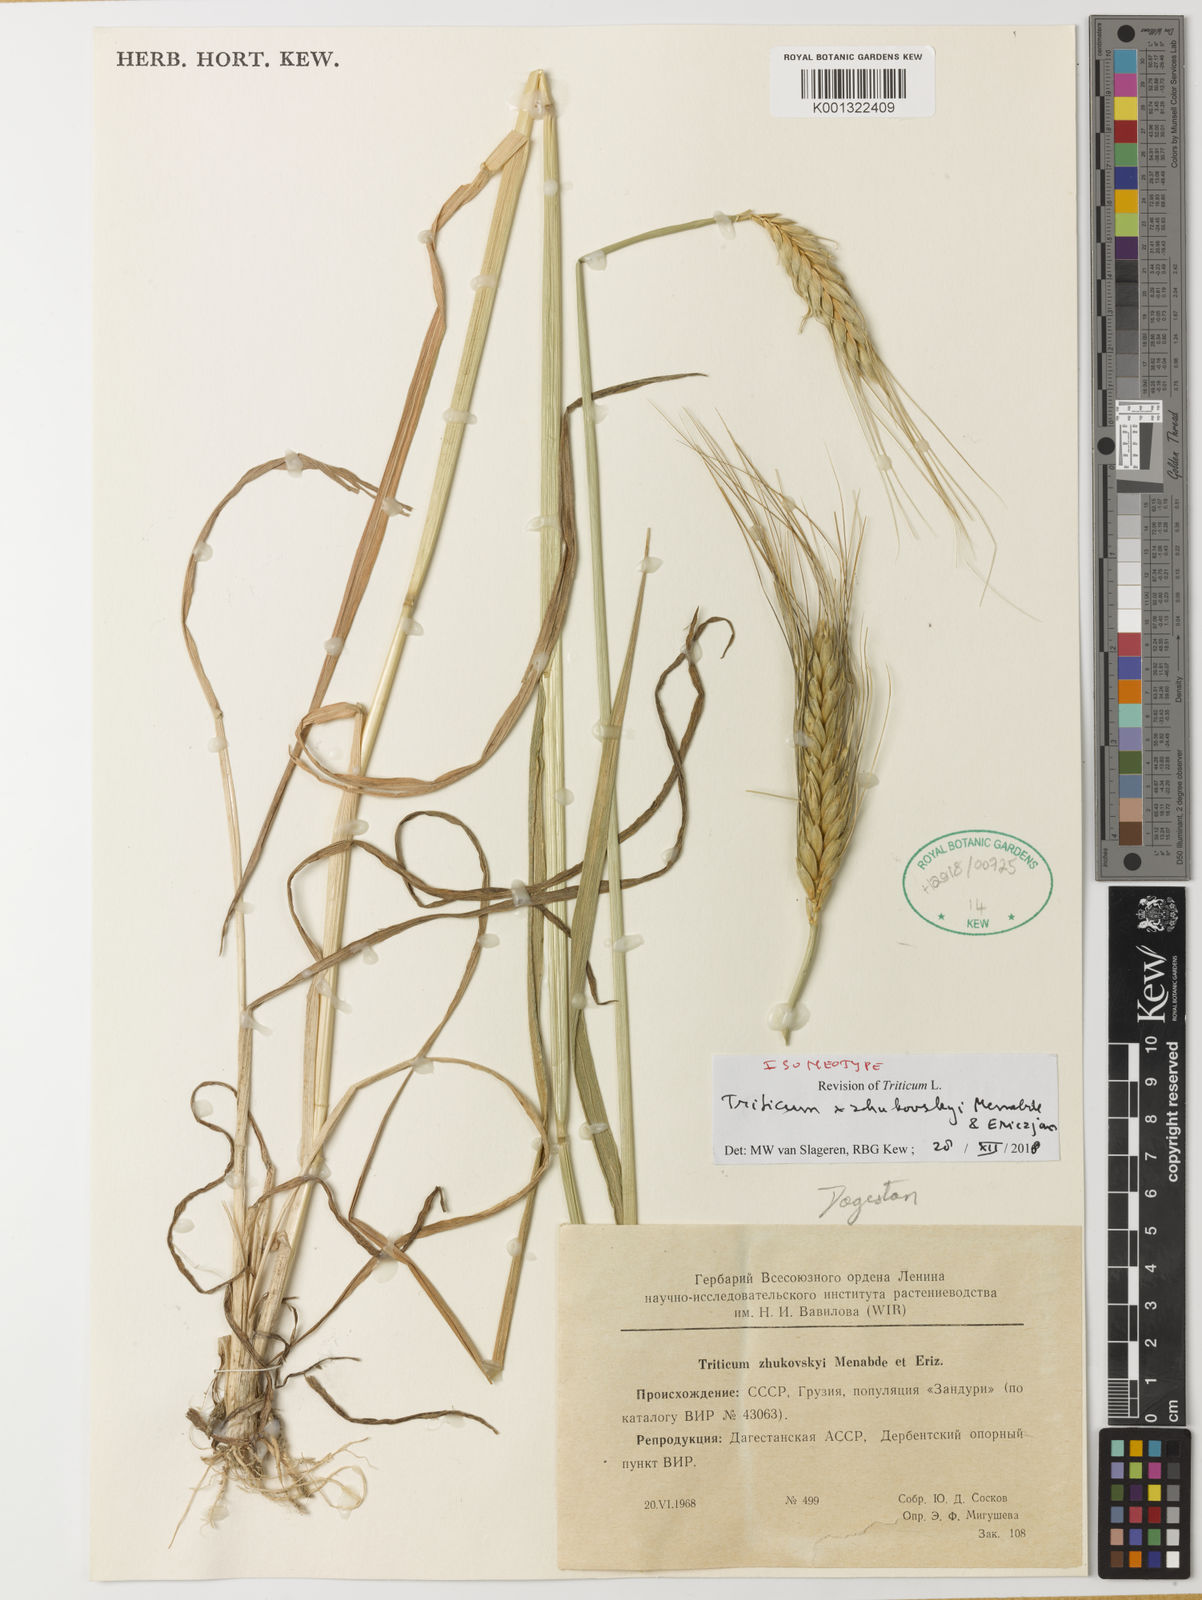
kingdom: Plantae
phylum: Tracheophyta
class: Liliopsida
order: Poales
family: Poaceae
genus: Triticum
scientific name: Triticum zhukovskyi
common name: Zhukovsky's wheat
